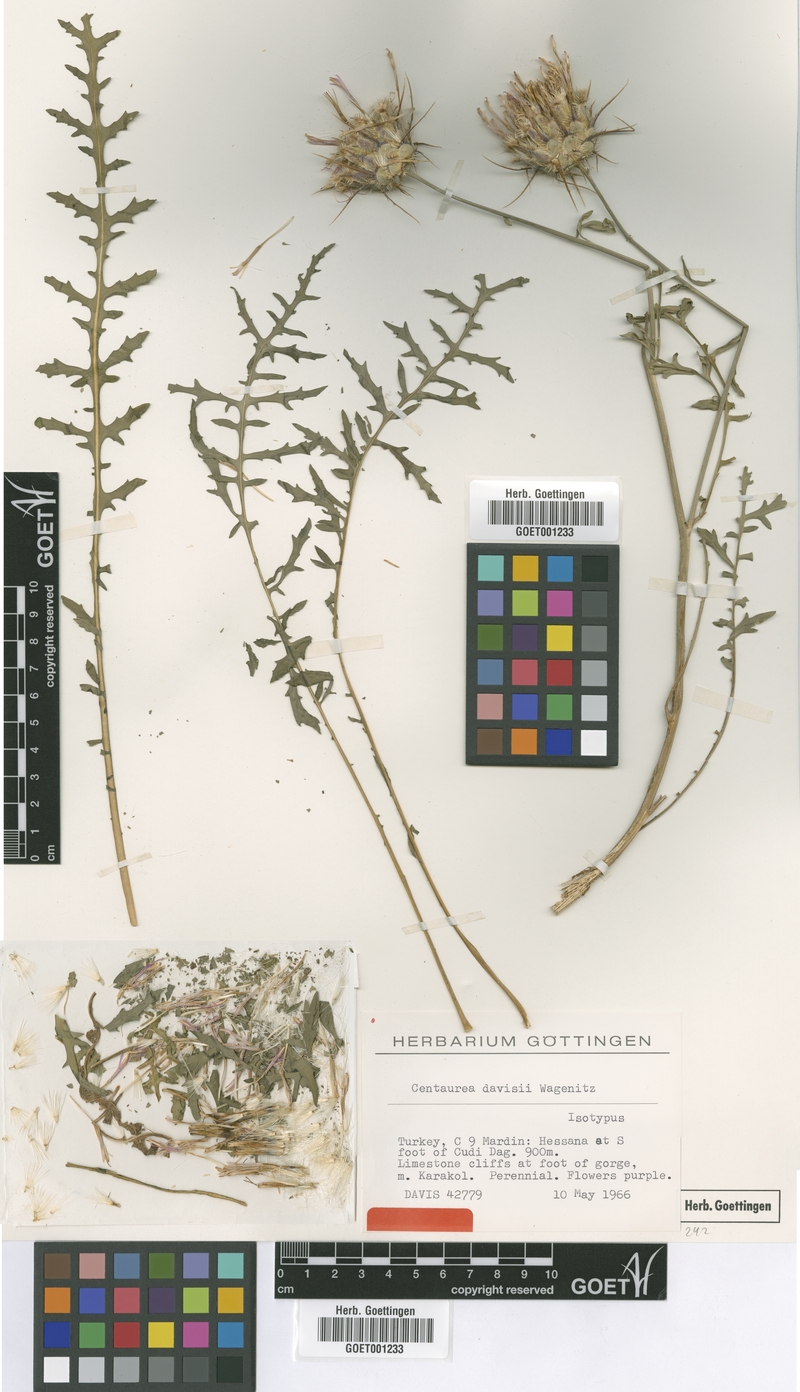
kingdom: Plantae
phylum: Tracheophyta
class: Magnoliopsida
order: Asterales
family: Asteraceae
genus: Centaurea
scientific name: Centaurea davisii
